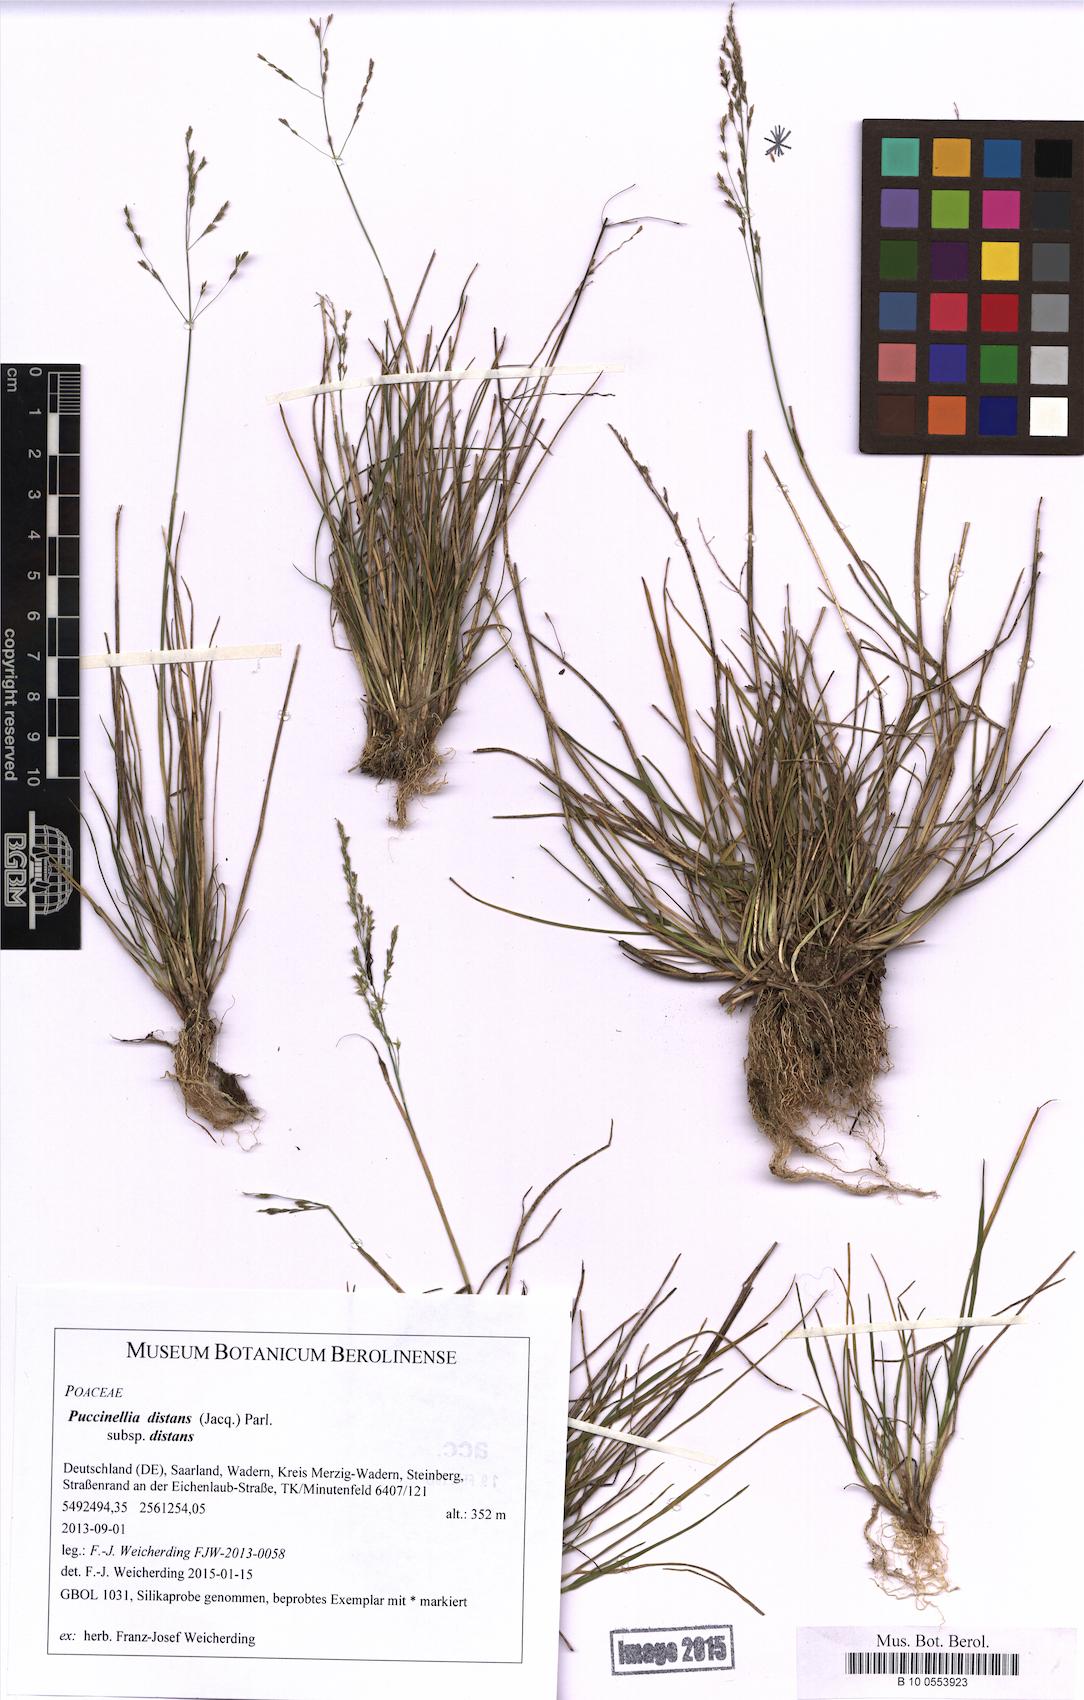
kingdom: Plantae
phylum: Tracheophyta
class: Liliopsida
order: Poales
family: Poaceae
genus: Puccinellia
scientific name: Puccinellia distans
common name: Weeping alkaligrass
